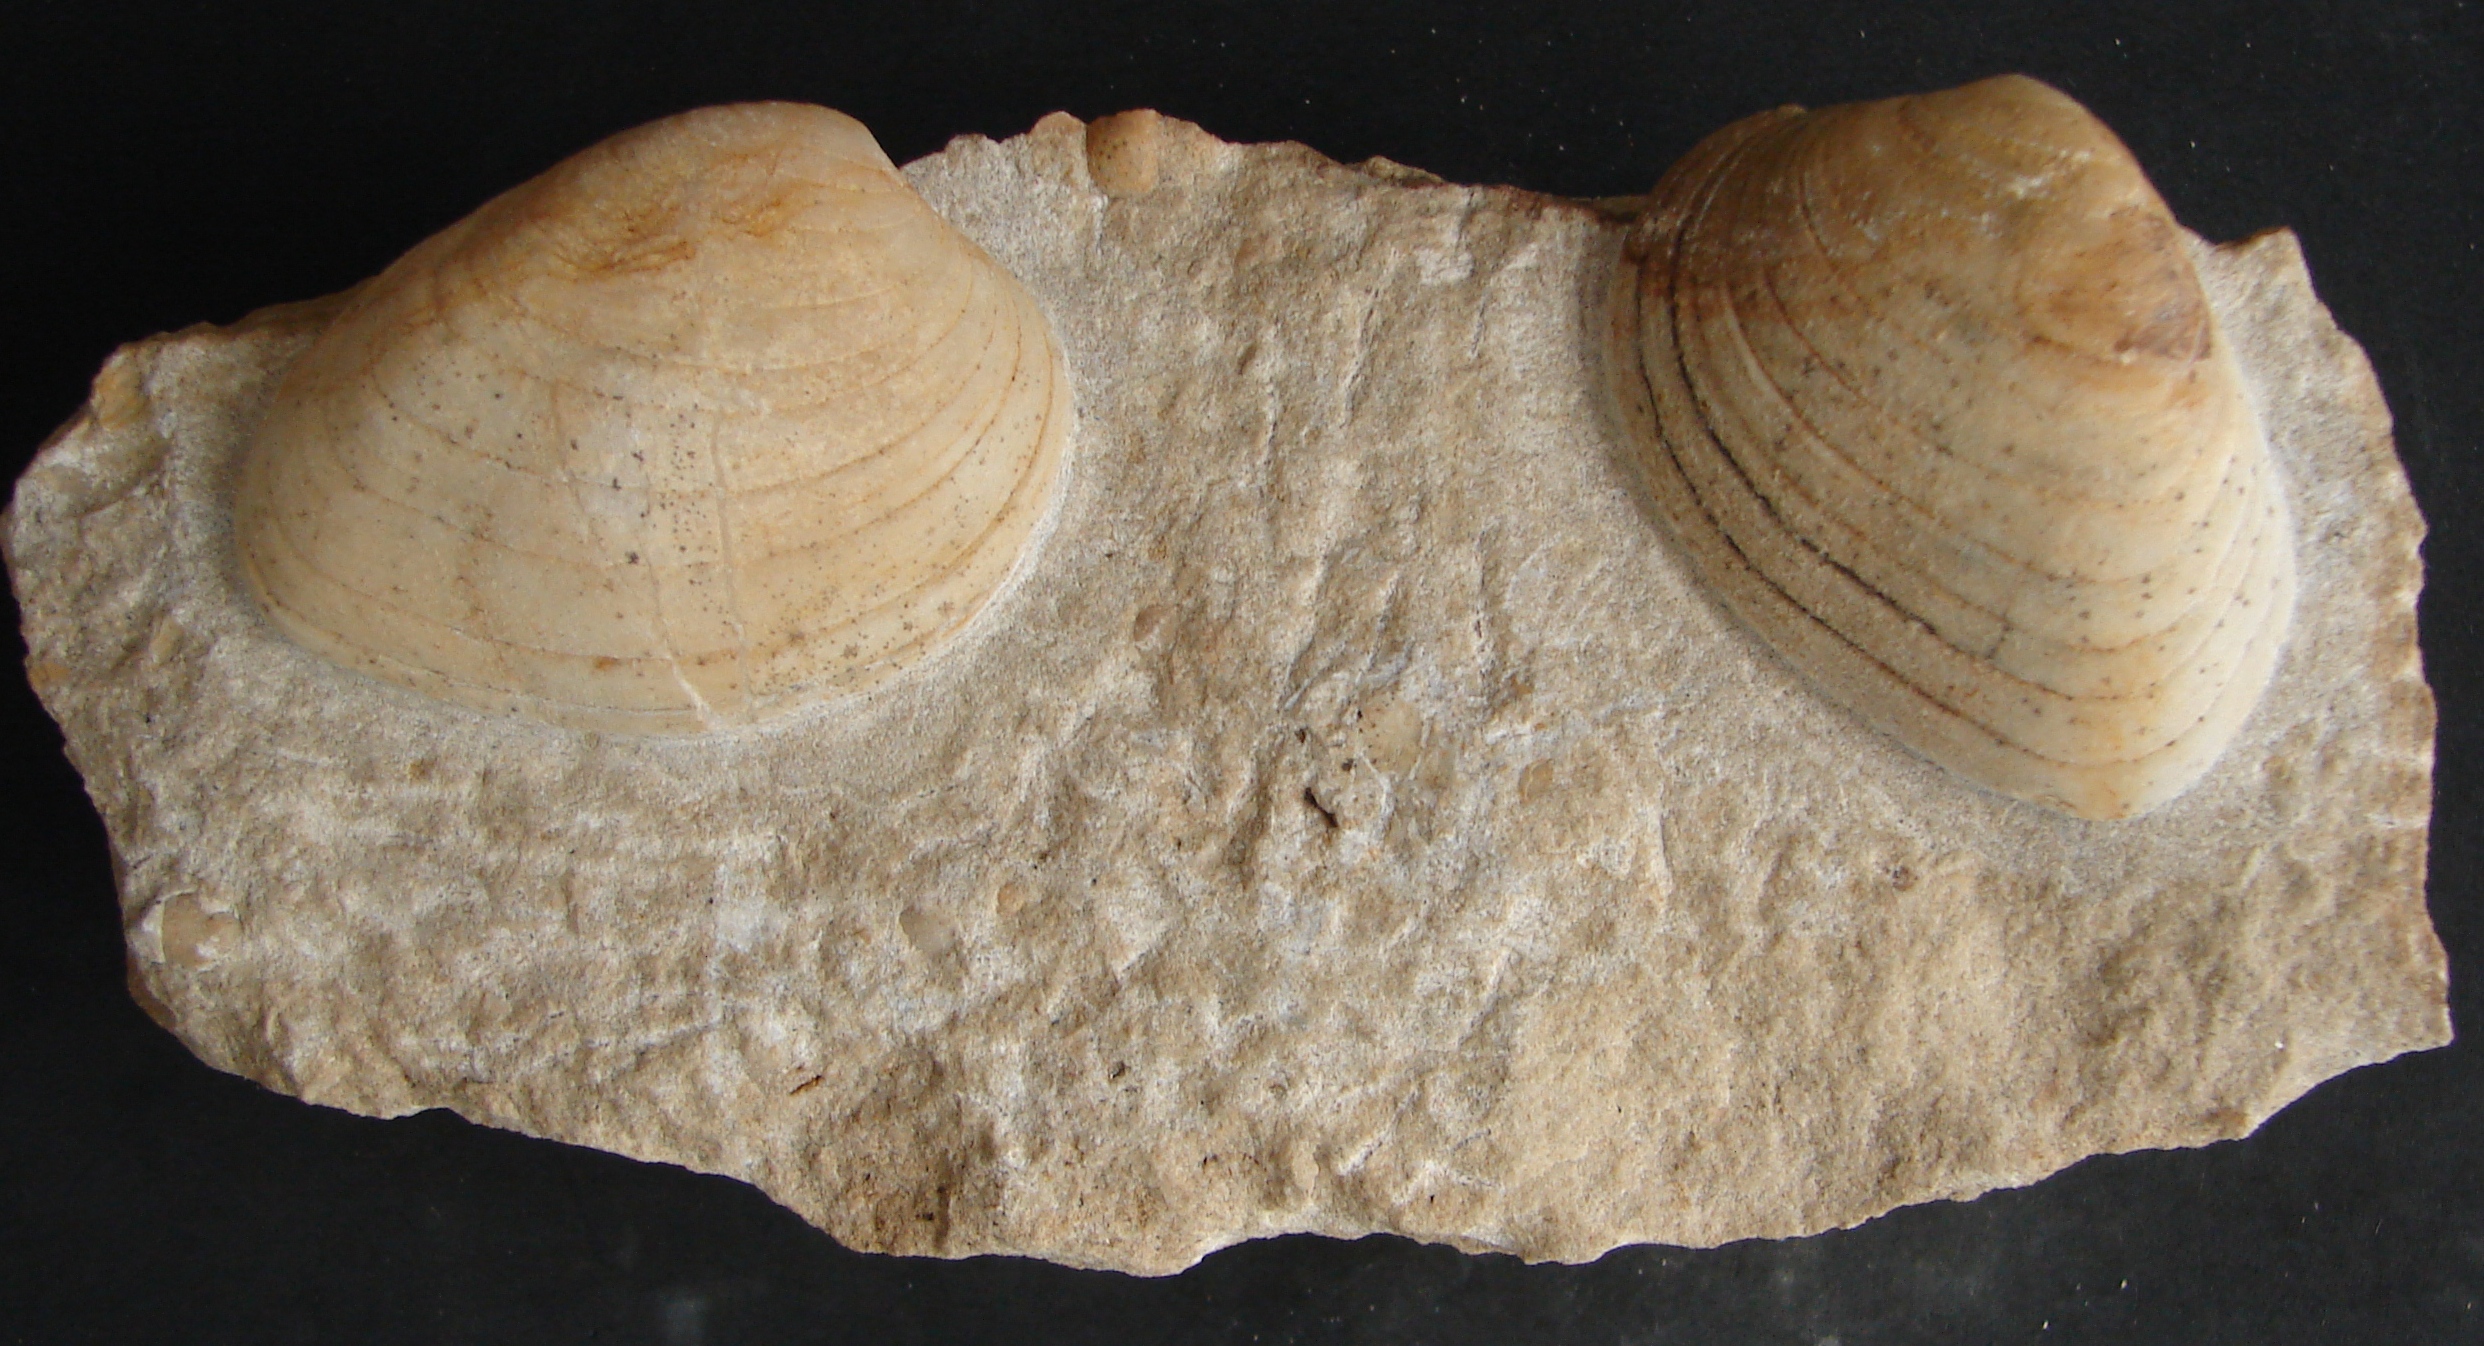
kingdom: Animalia
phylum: Mollusca
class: Bivalvia
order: Carditida
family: Cardiniidae
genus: Cardinia
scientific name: Cardinia
